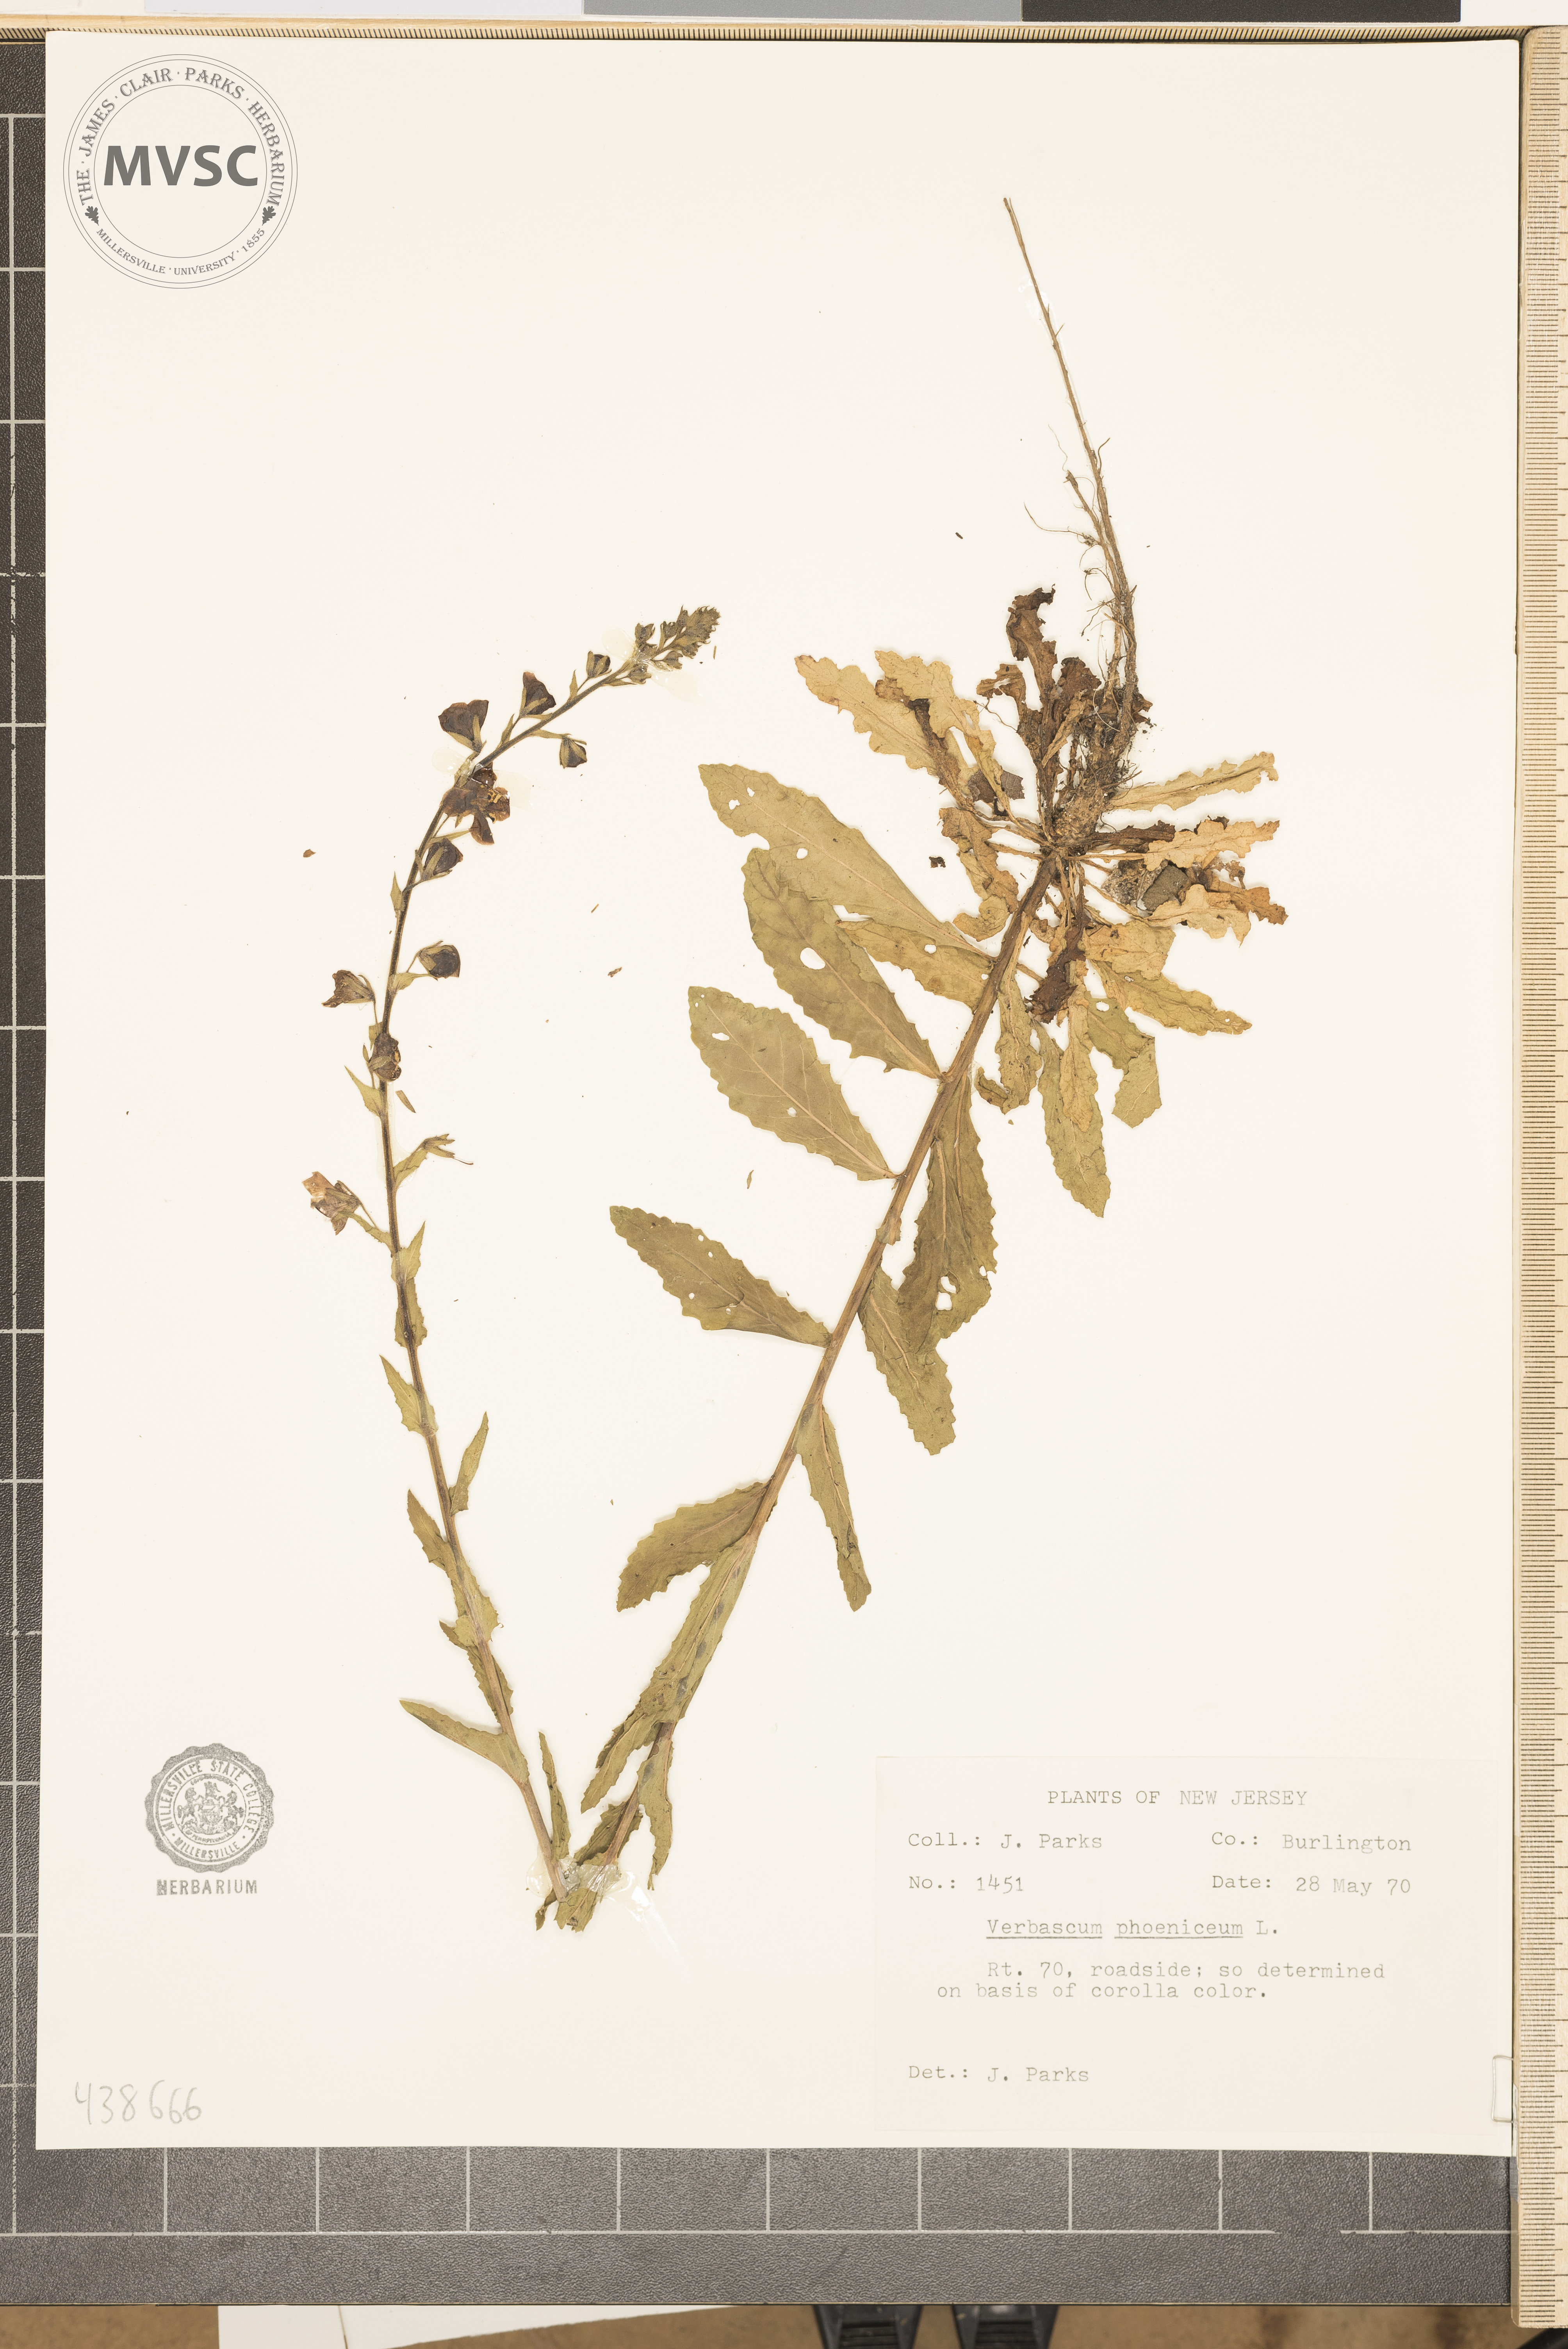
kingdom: Plantae
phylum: Tracheophyta
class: Magnoliopsida
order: Lamiales
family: Scrophulariaceae
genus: Verbascum
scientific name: Verbascum phoeniceum
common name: Purple mullein
